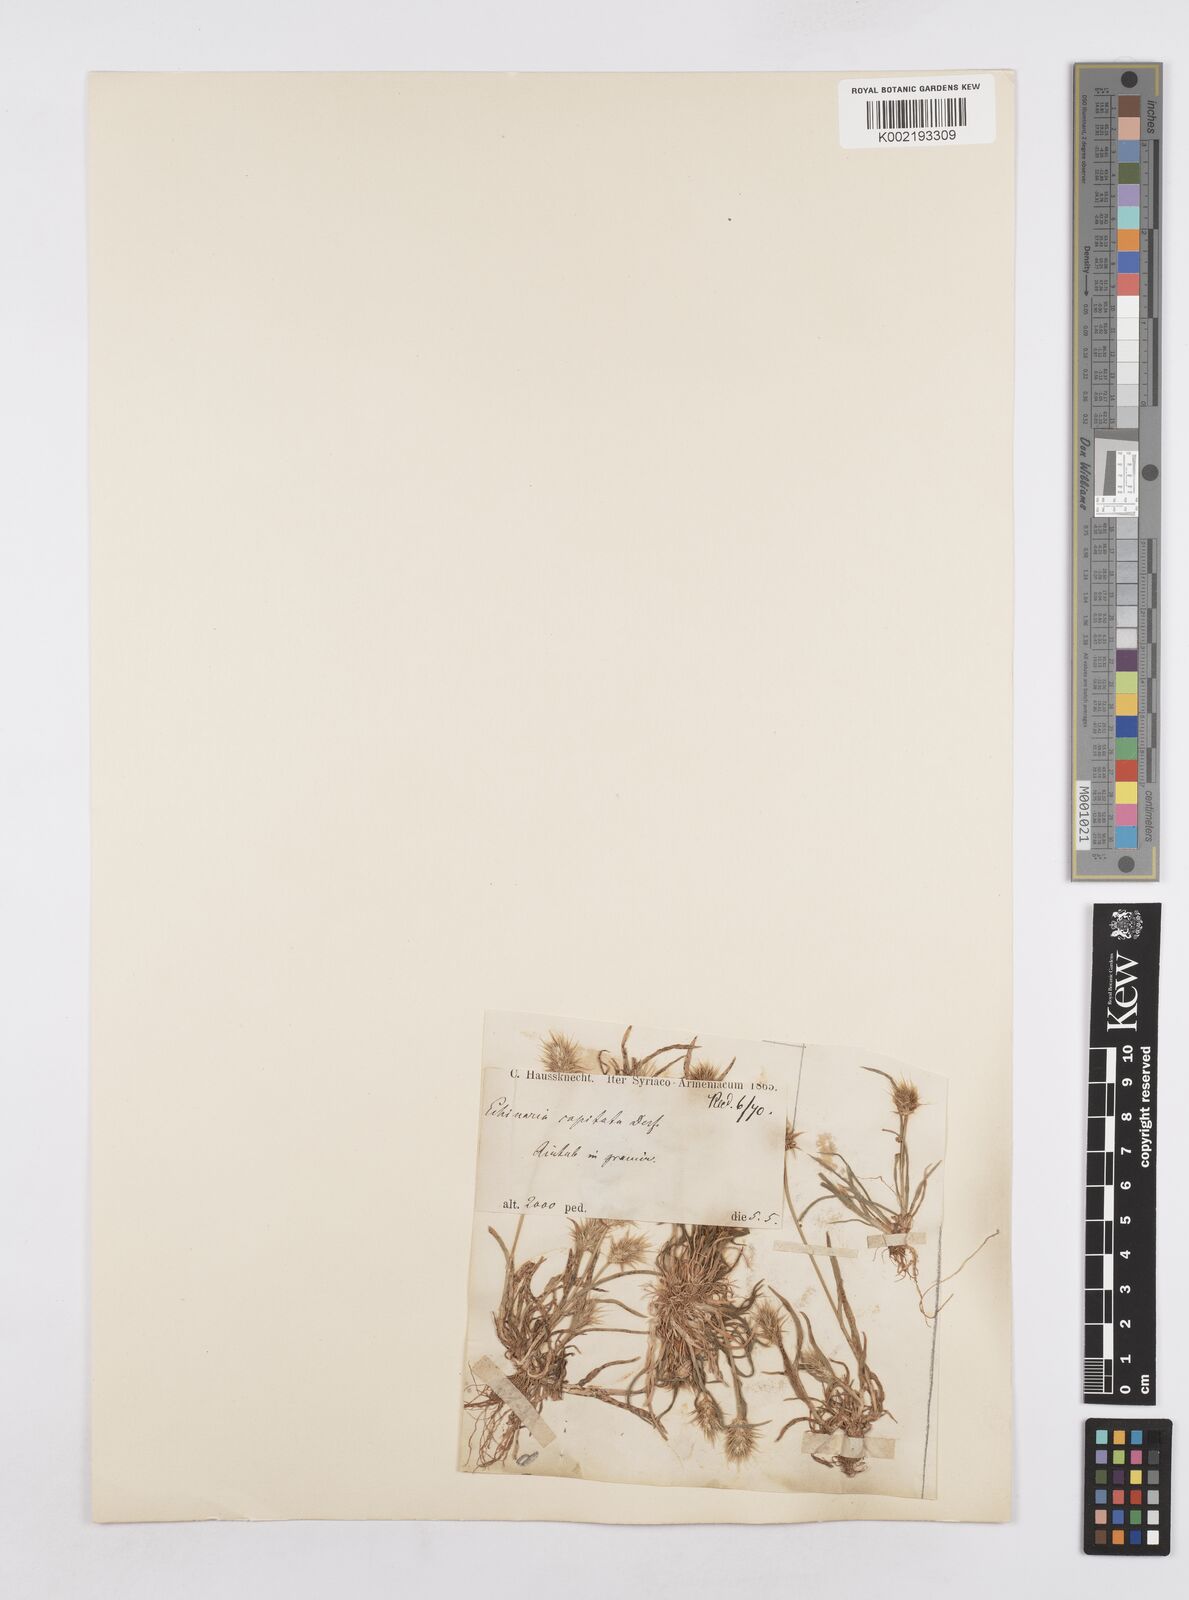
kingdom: Plantae
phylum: Tracheophyta
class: Liliopsida
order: Poales
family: Poaceae
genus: Echinaria
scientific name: Echinaria capitata
